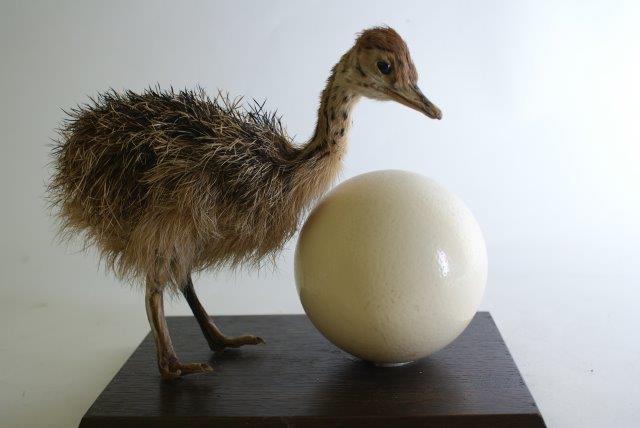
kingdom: Animalia
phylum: Chordata
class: Aves
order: Struthioniformes
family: Struthionidae
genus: Struthio
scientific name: Struthio camelus
